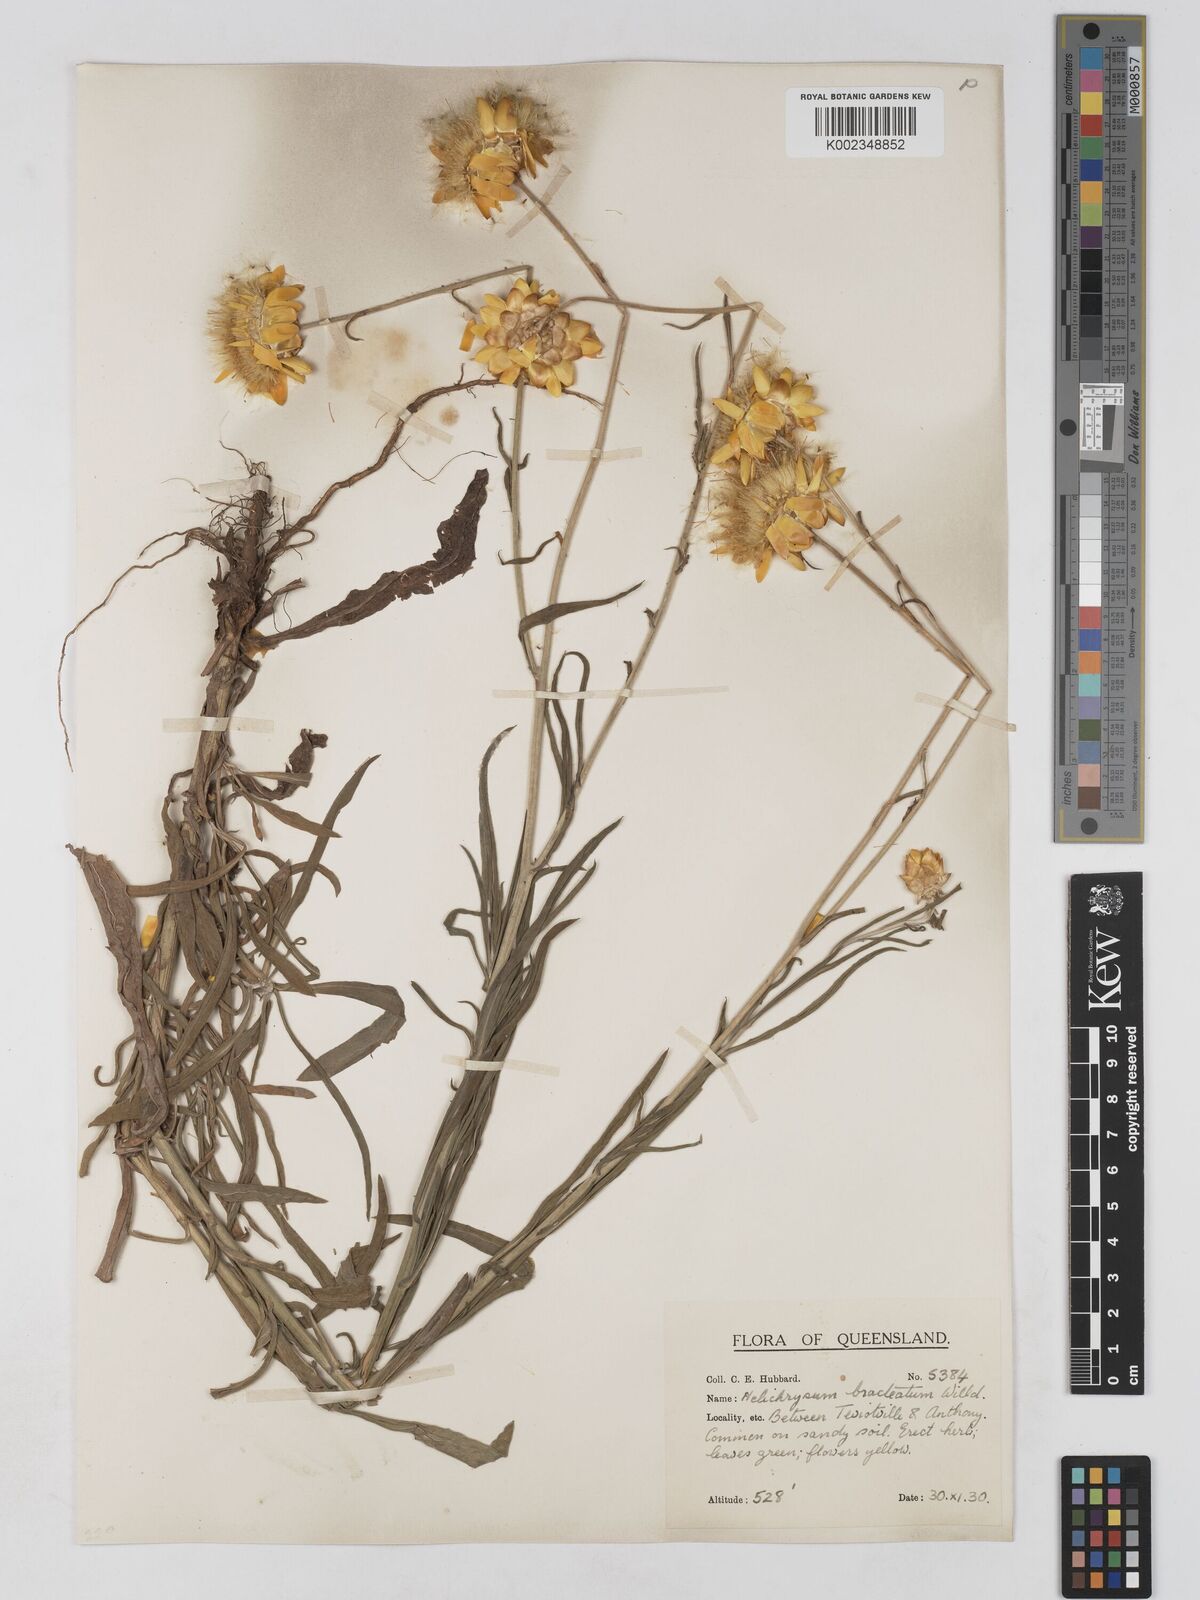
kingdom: Plantae
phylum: Tracheophyta
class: Magnoliopsida
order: Asterales
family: Asteraceae
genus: Xerochrysum
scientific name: Xerochrysum bracteatum
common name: Bracted strawflower
